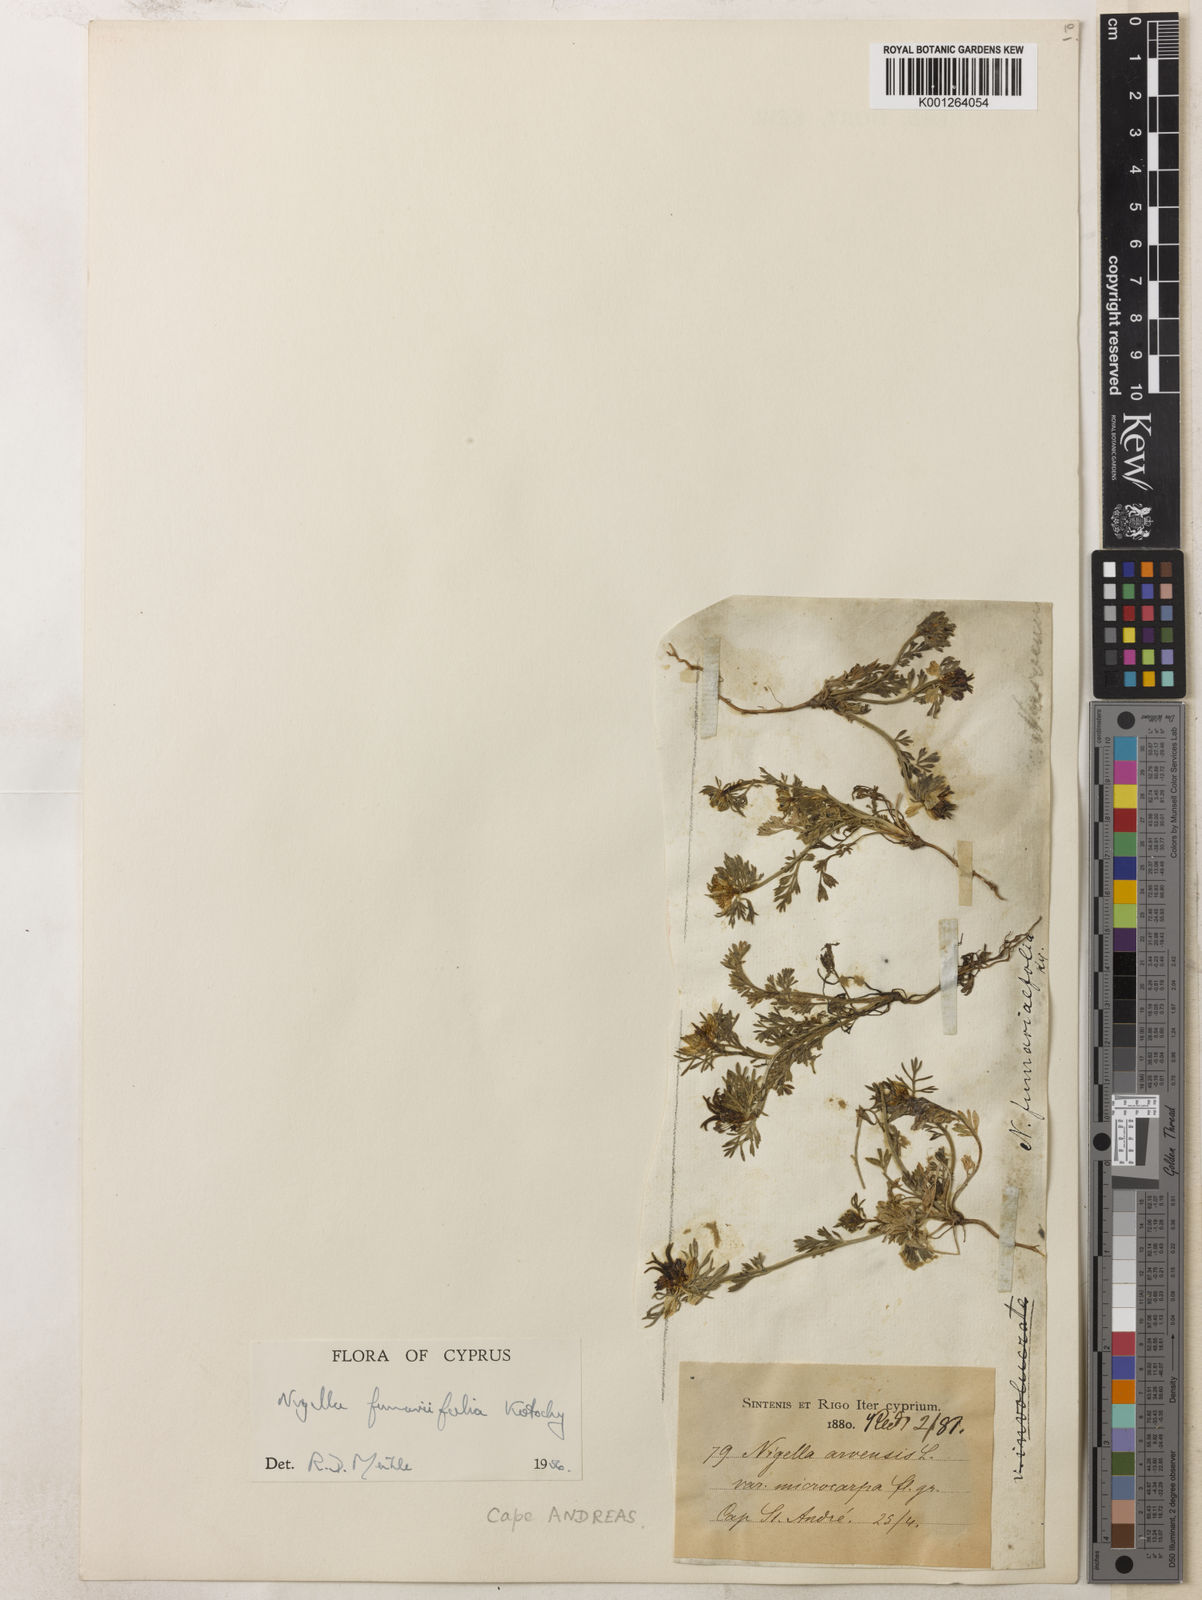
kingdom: Plantae
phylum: Tracheophyta
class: Magnoliopsida
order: Ranunculales
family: Ranunculaceae
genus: Nigella
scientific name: Nigella
